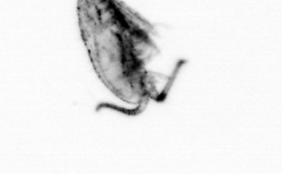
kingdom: Animalia
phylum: Arthropoda
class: Copepoda
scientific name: Copepoda
